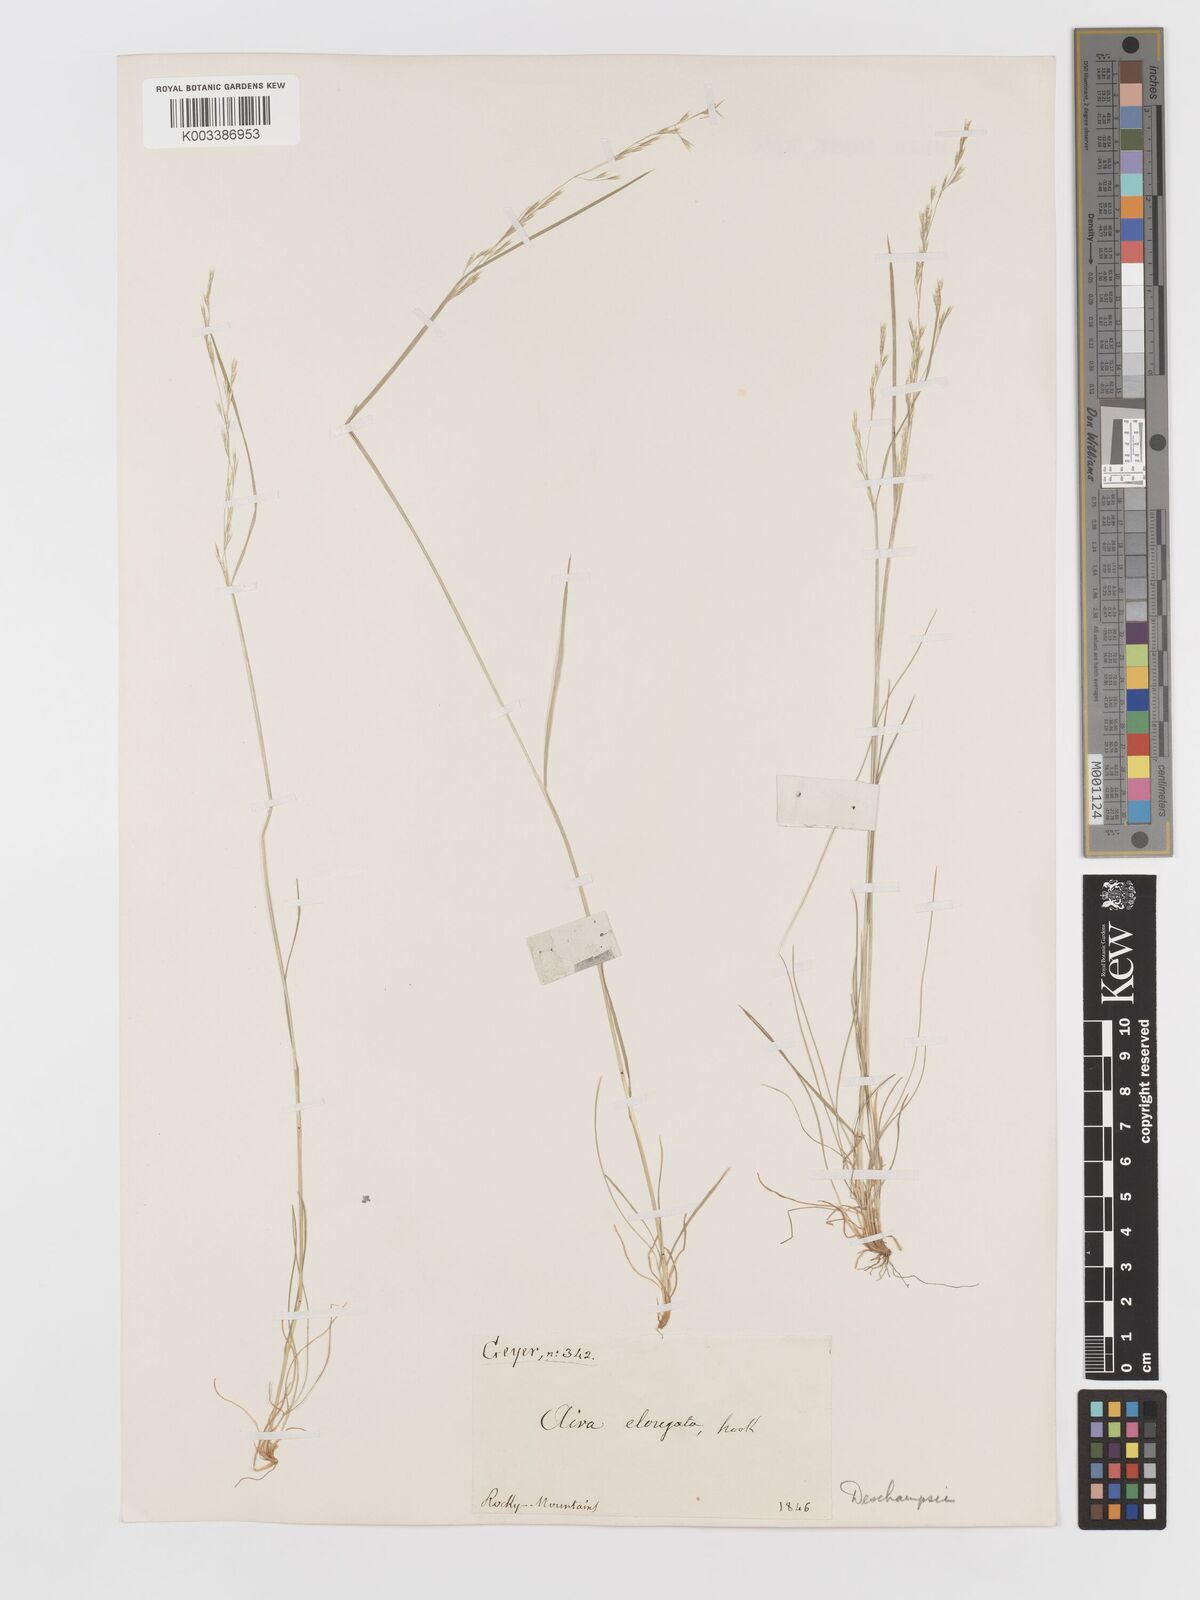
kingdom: Plantae
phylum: Tracheophyta
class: Liliopsida
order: Poales
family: Poaceae
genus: Deschampsia
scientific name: Deschampsia elongata
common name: Slender hairgrass
